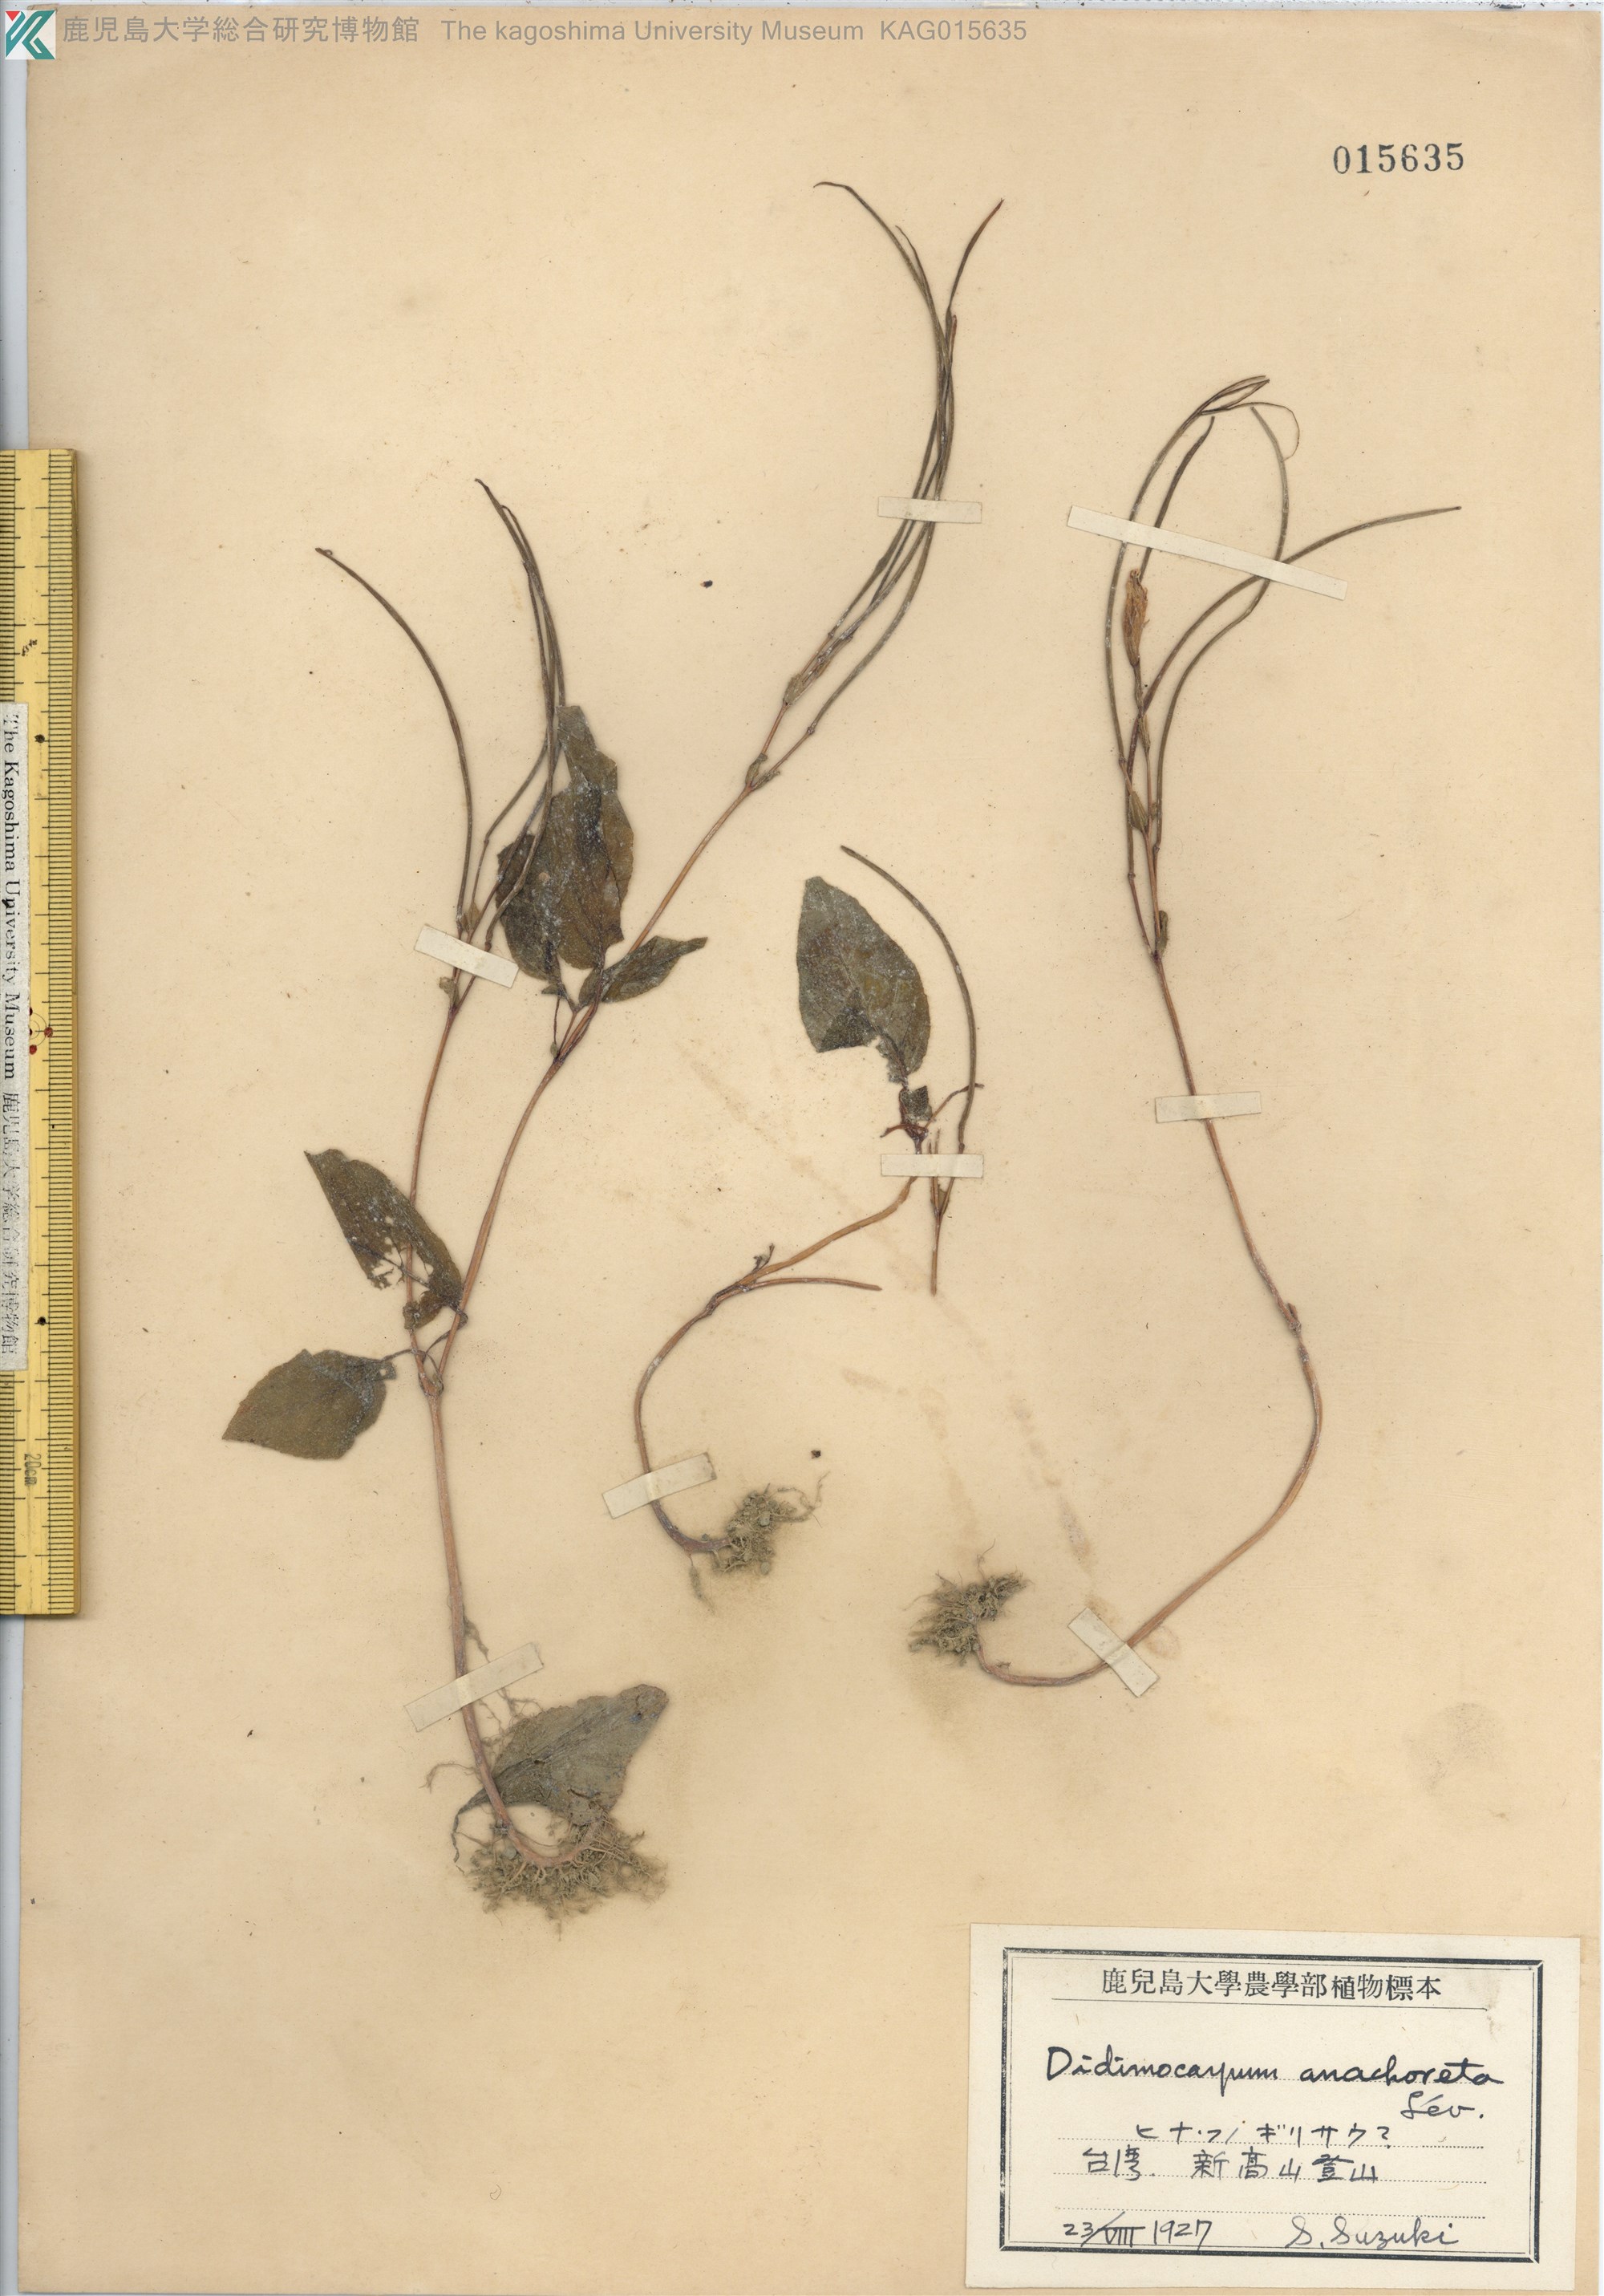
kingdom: Plantae
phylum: Tracheophyta
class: Magnoliopsida
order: Lamiales
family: Gesneriaceae
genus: Henckelia
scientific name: Henckelia anachoreta
